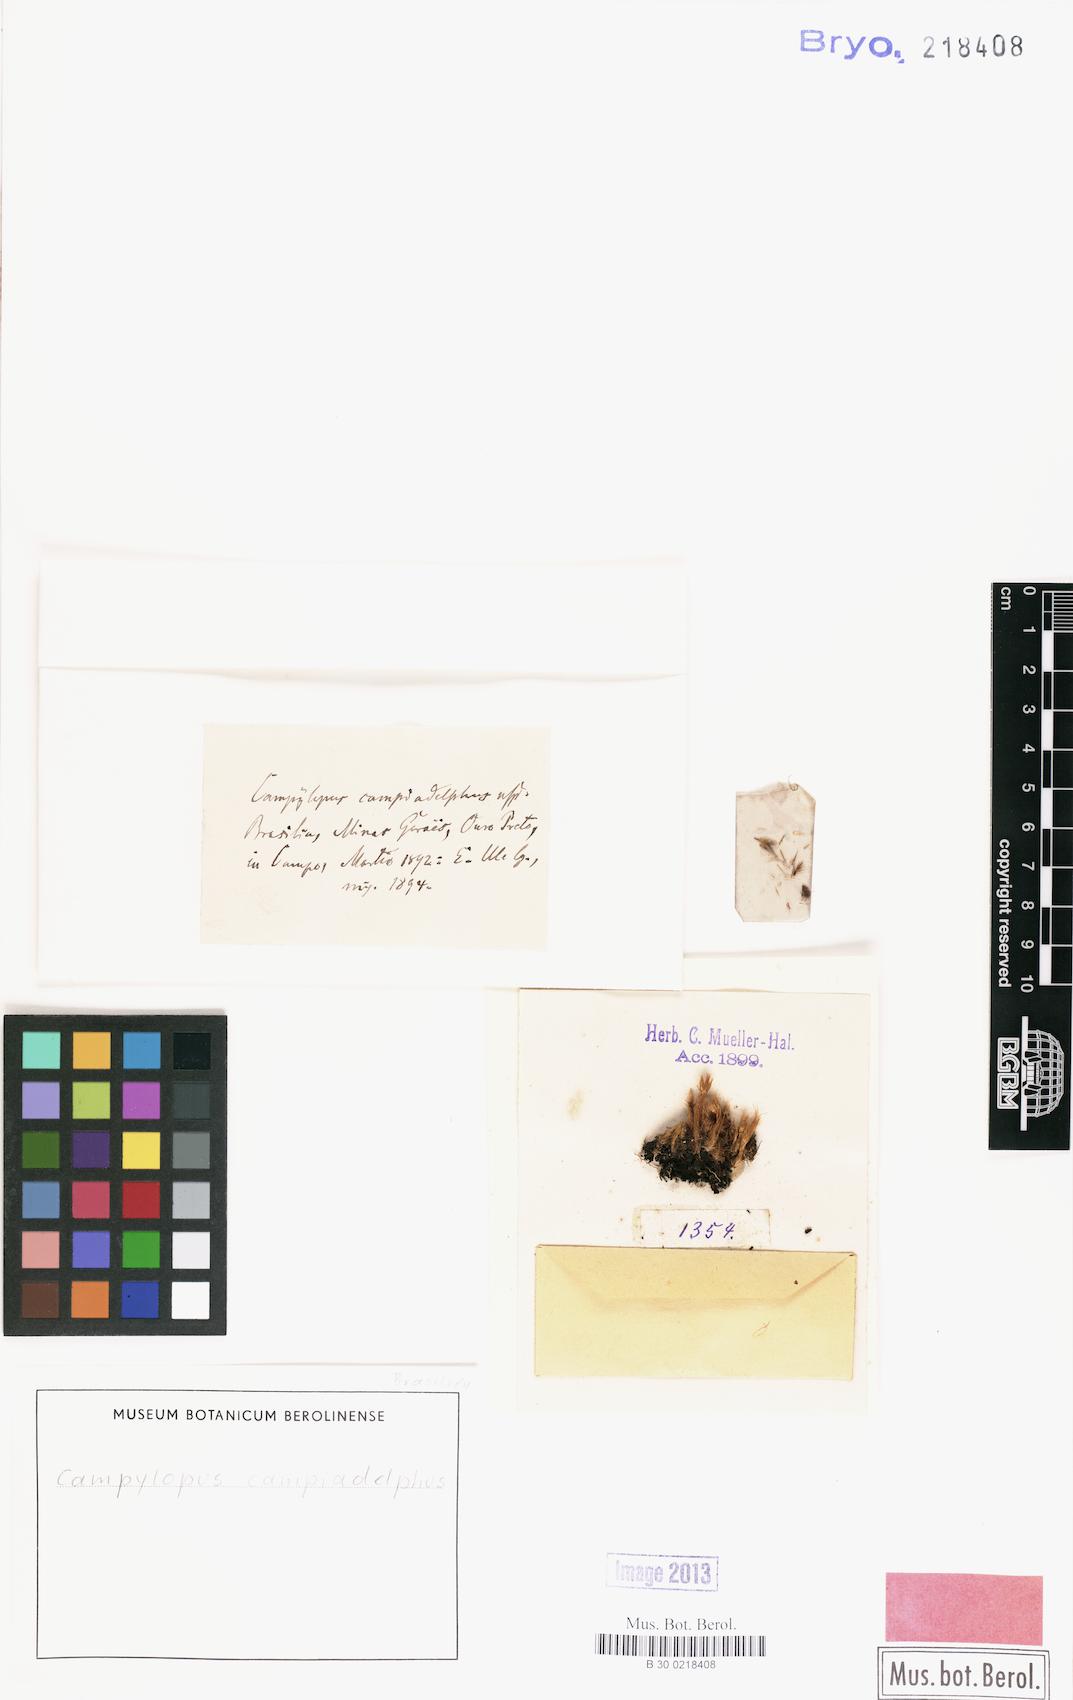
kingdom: Plantae
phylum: Bryophyta
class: Bryopsida
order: Dicranales
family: Leucobryaceae
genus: Campylopus
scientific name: Campylopus savannarum
